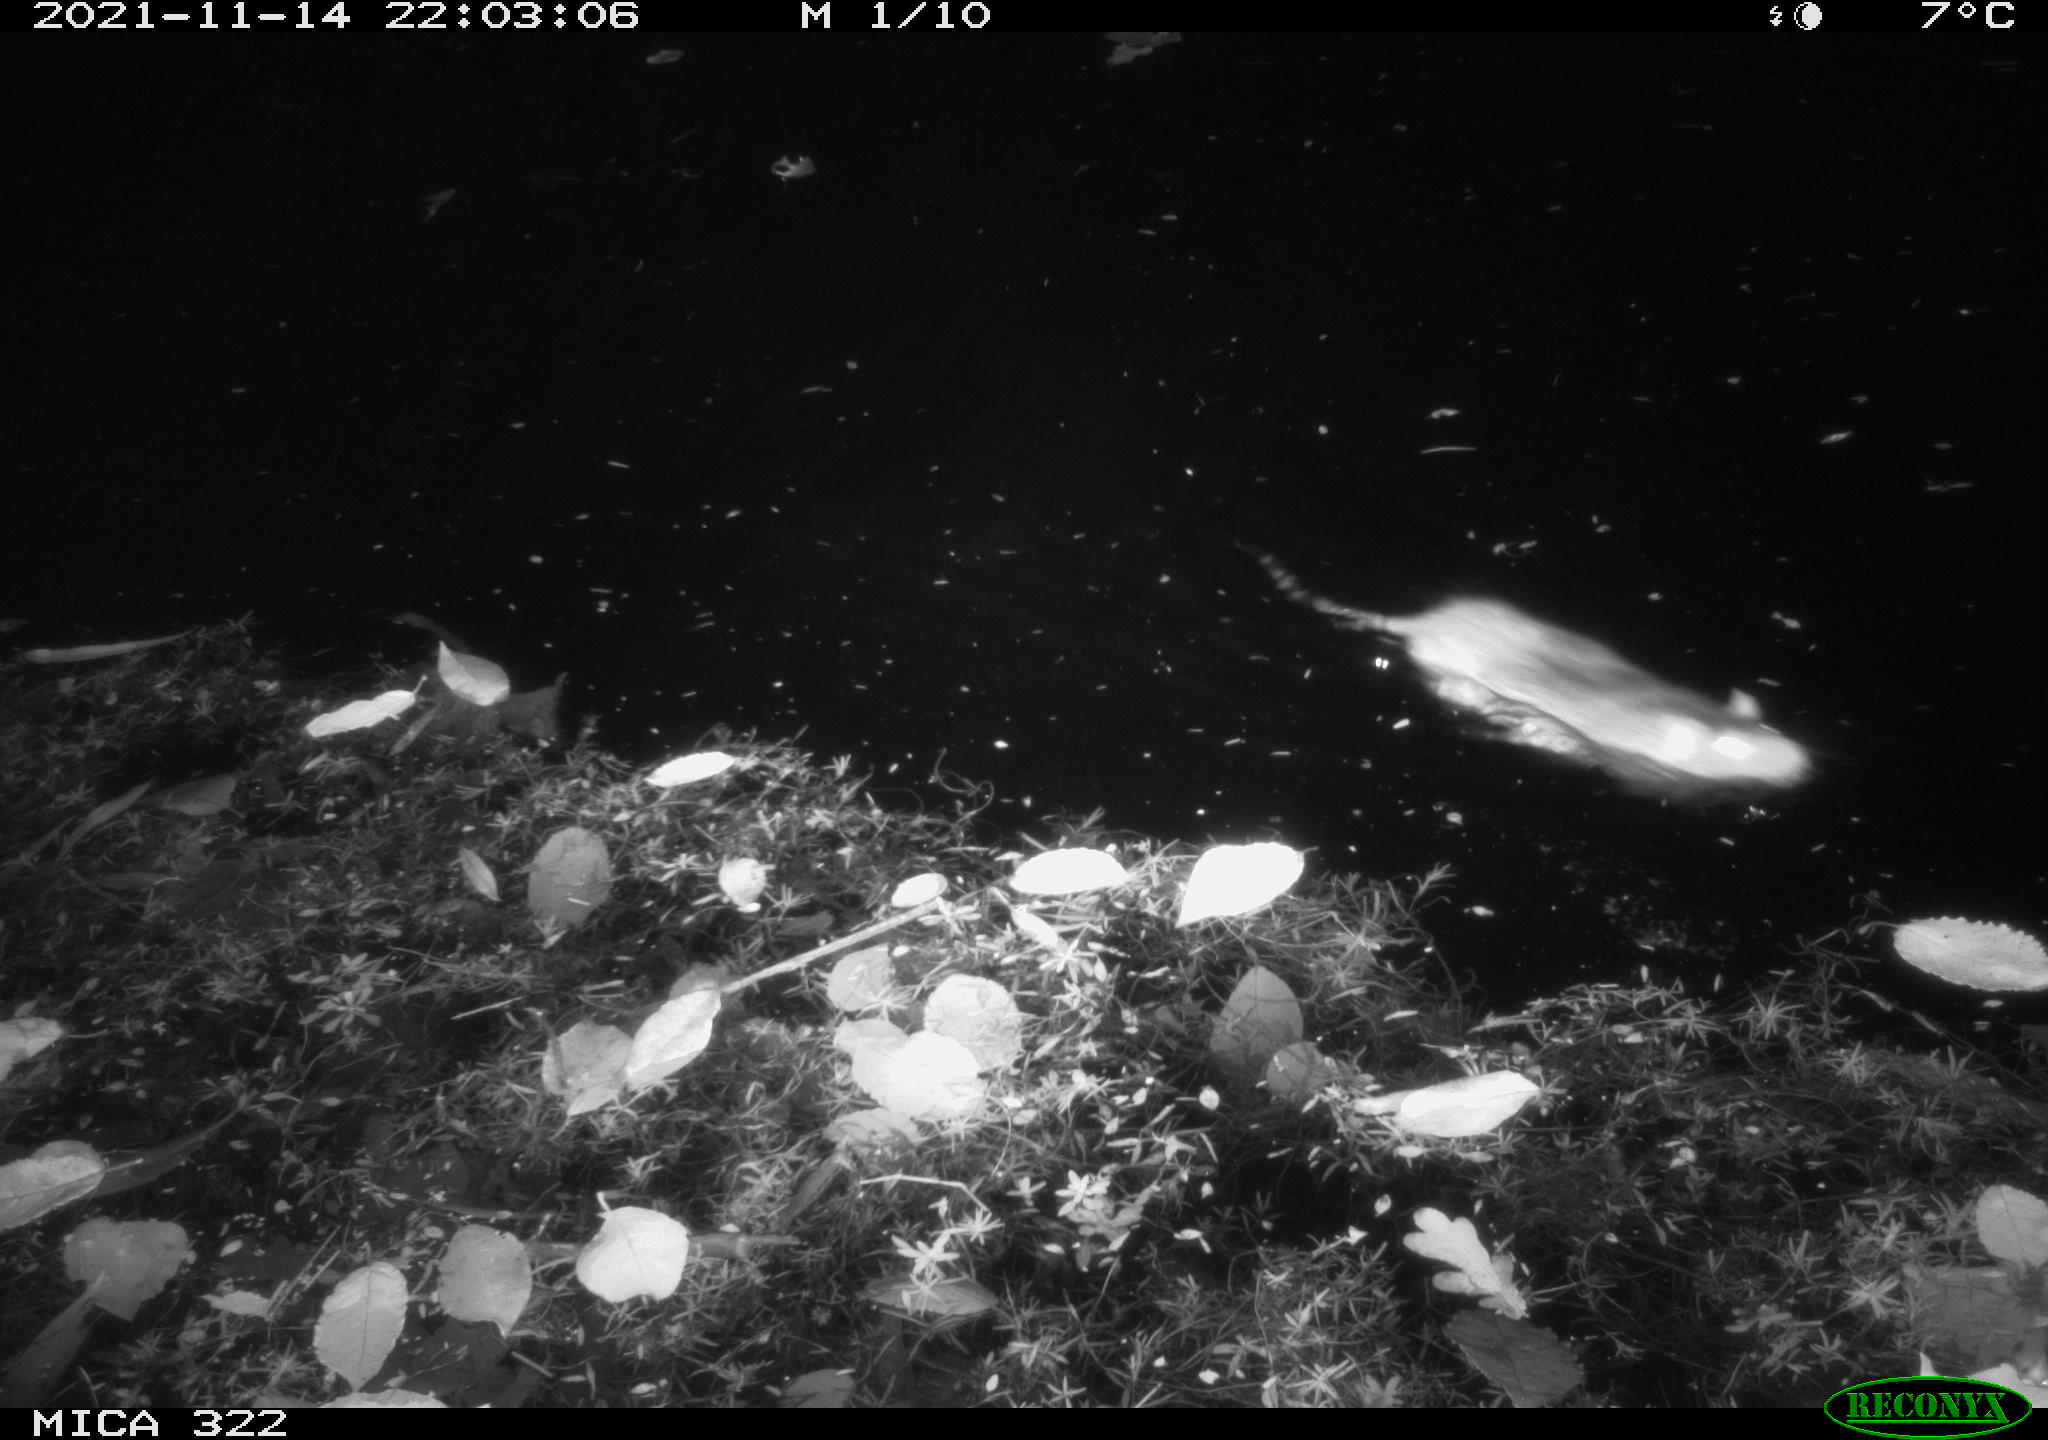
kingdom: Animalia
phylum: Chordata
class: Mammalia
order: Rodentia
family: Muridae
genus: Rattus
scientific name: Rattus norvegicus
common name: Brown rat
